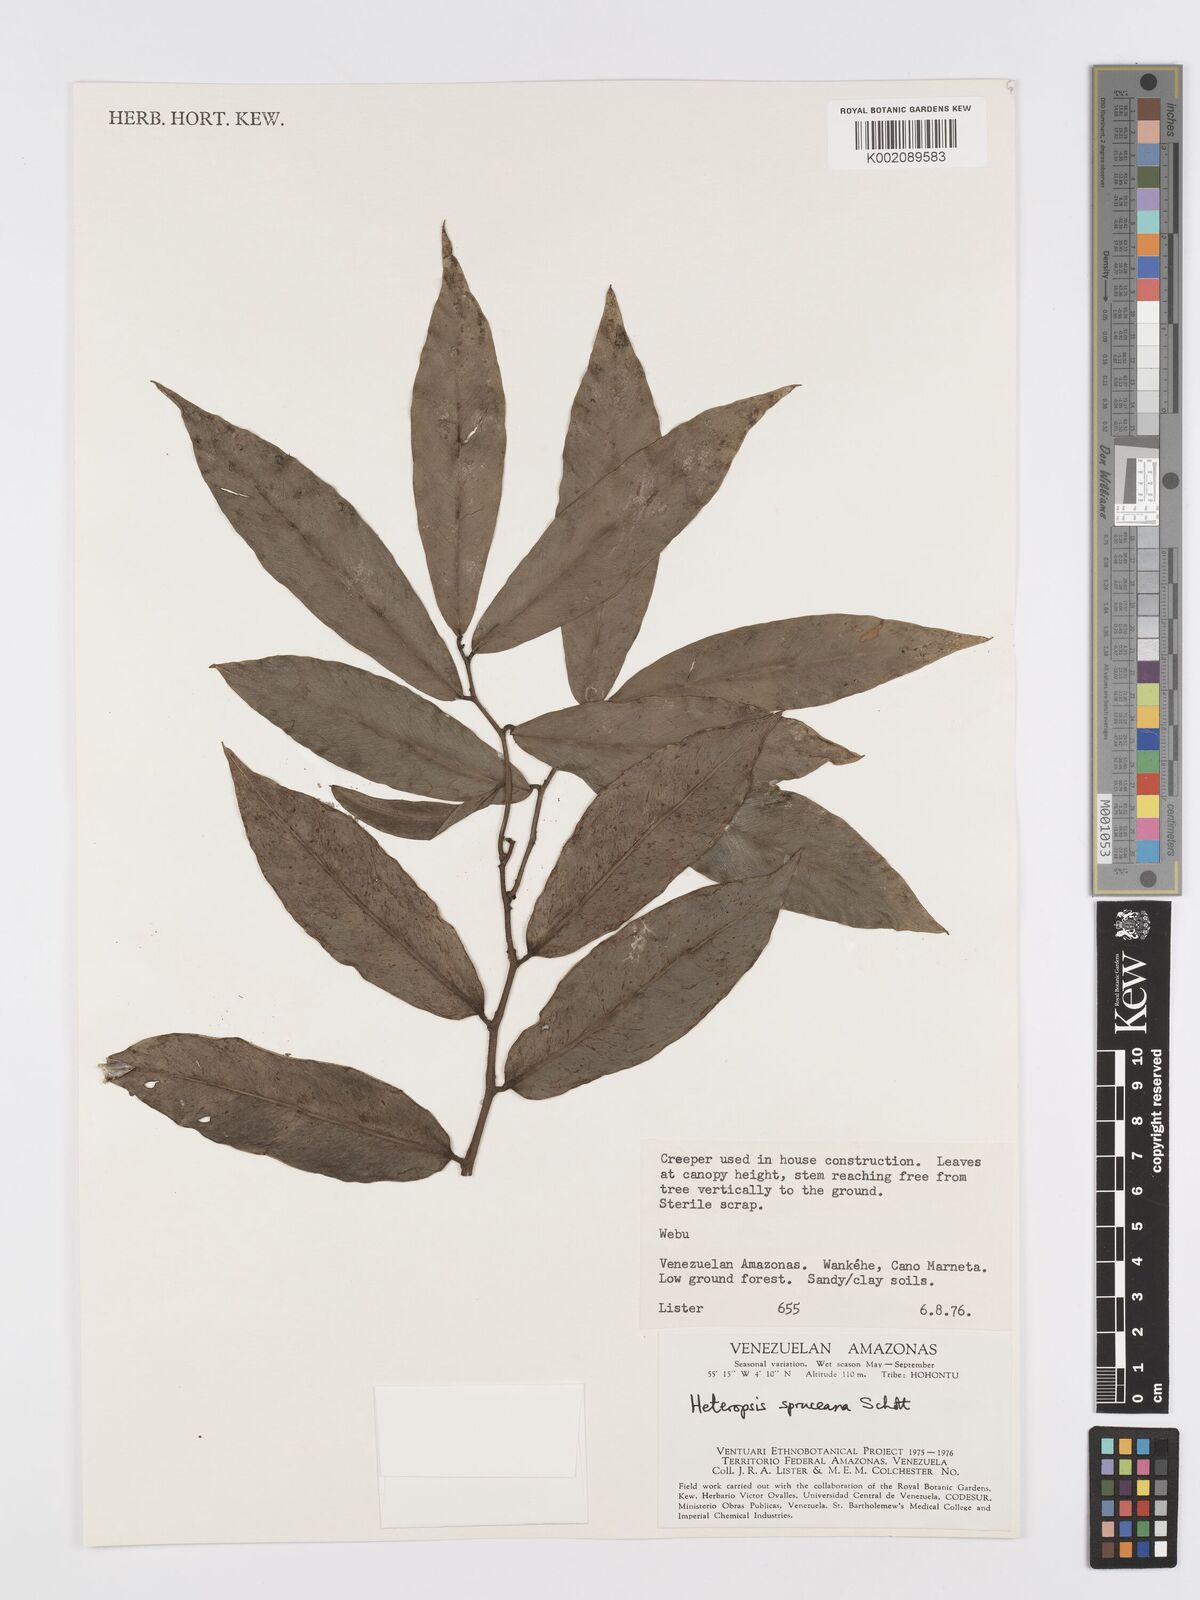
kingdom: Plantae
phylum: Tracheophyta
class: Liliopsida
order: Alismatales
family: Araceae
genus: Heteropsis
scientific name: Heteropsis spruceana
